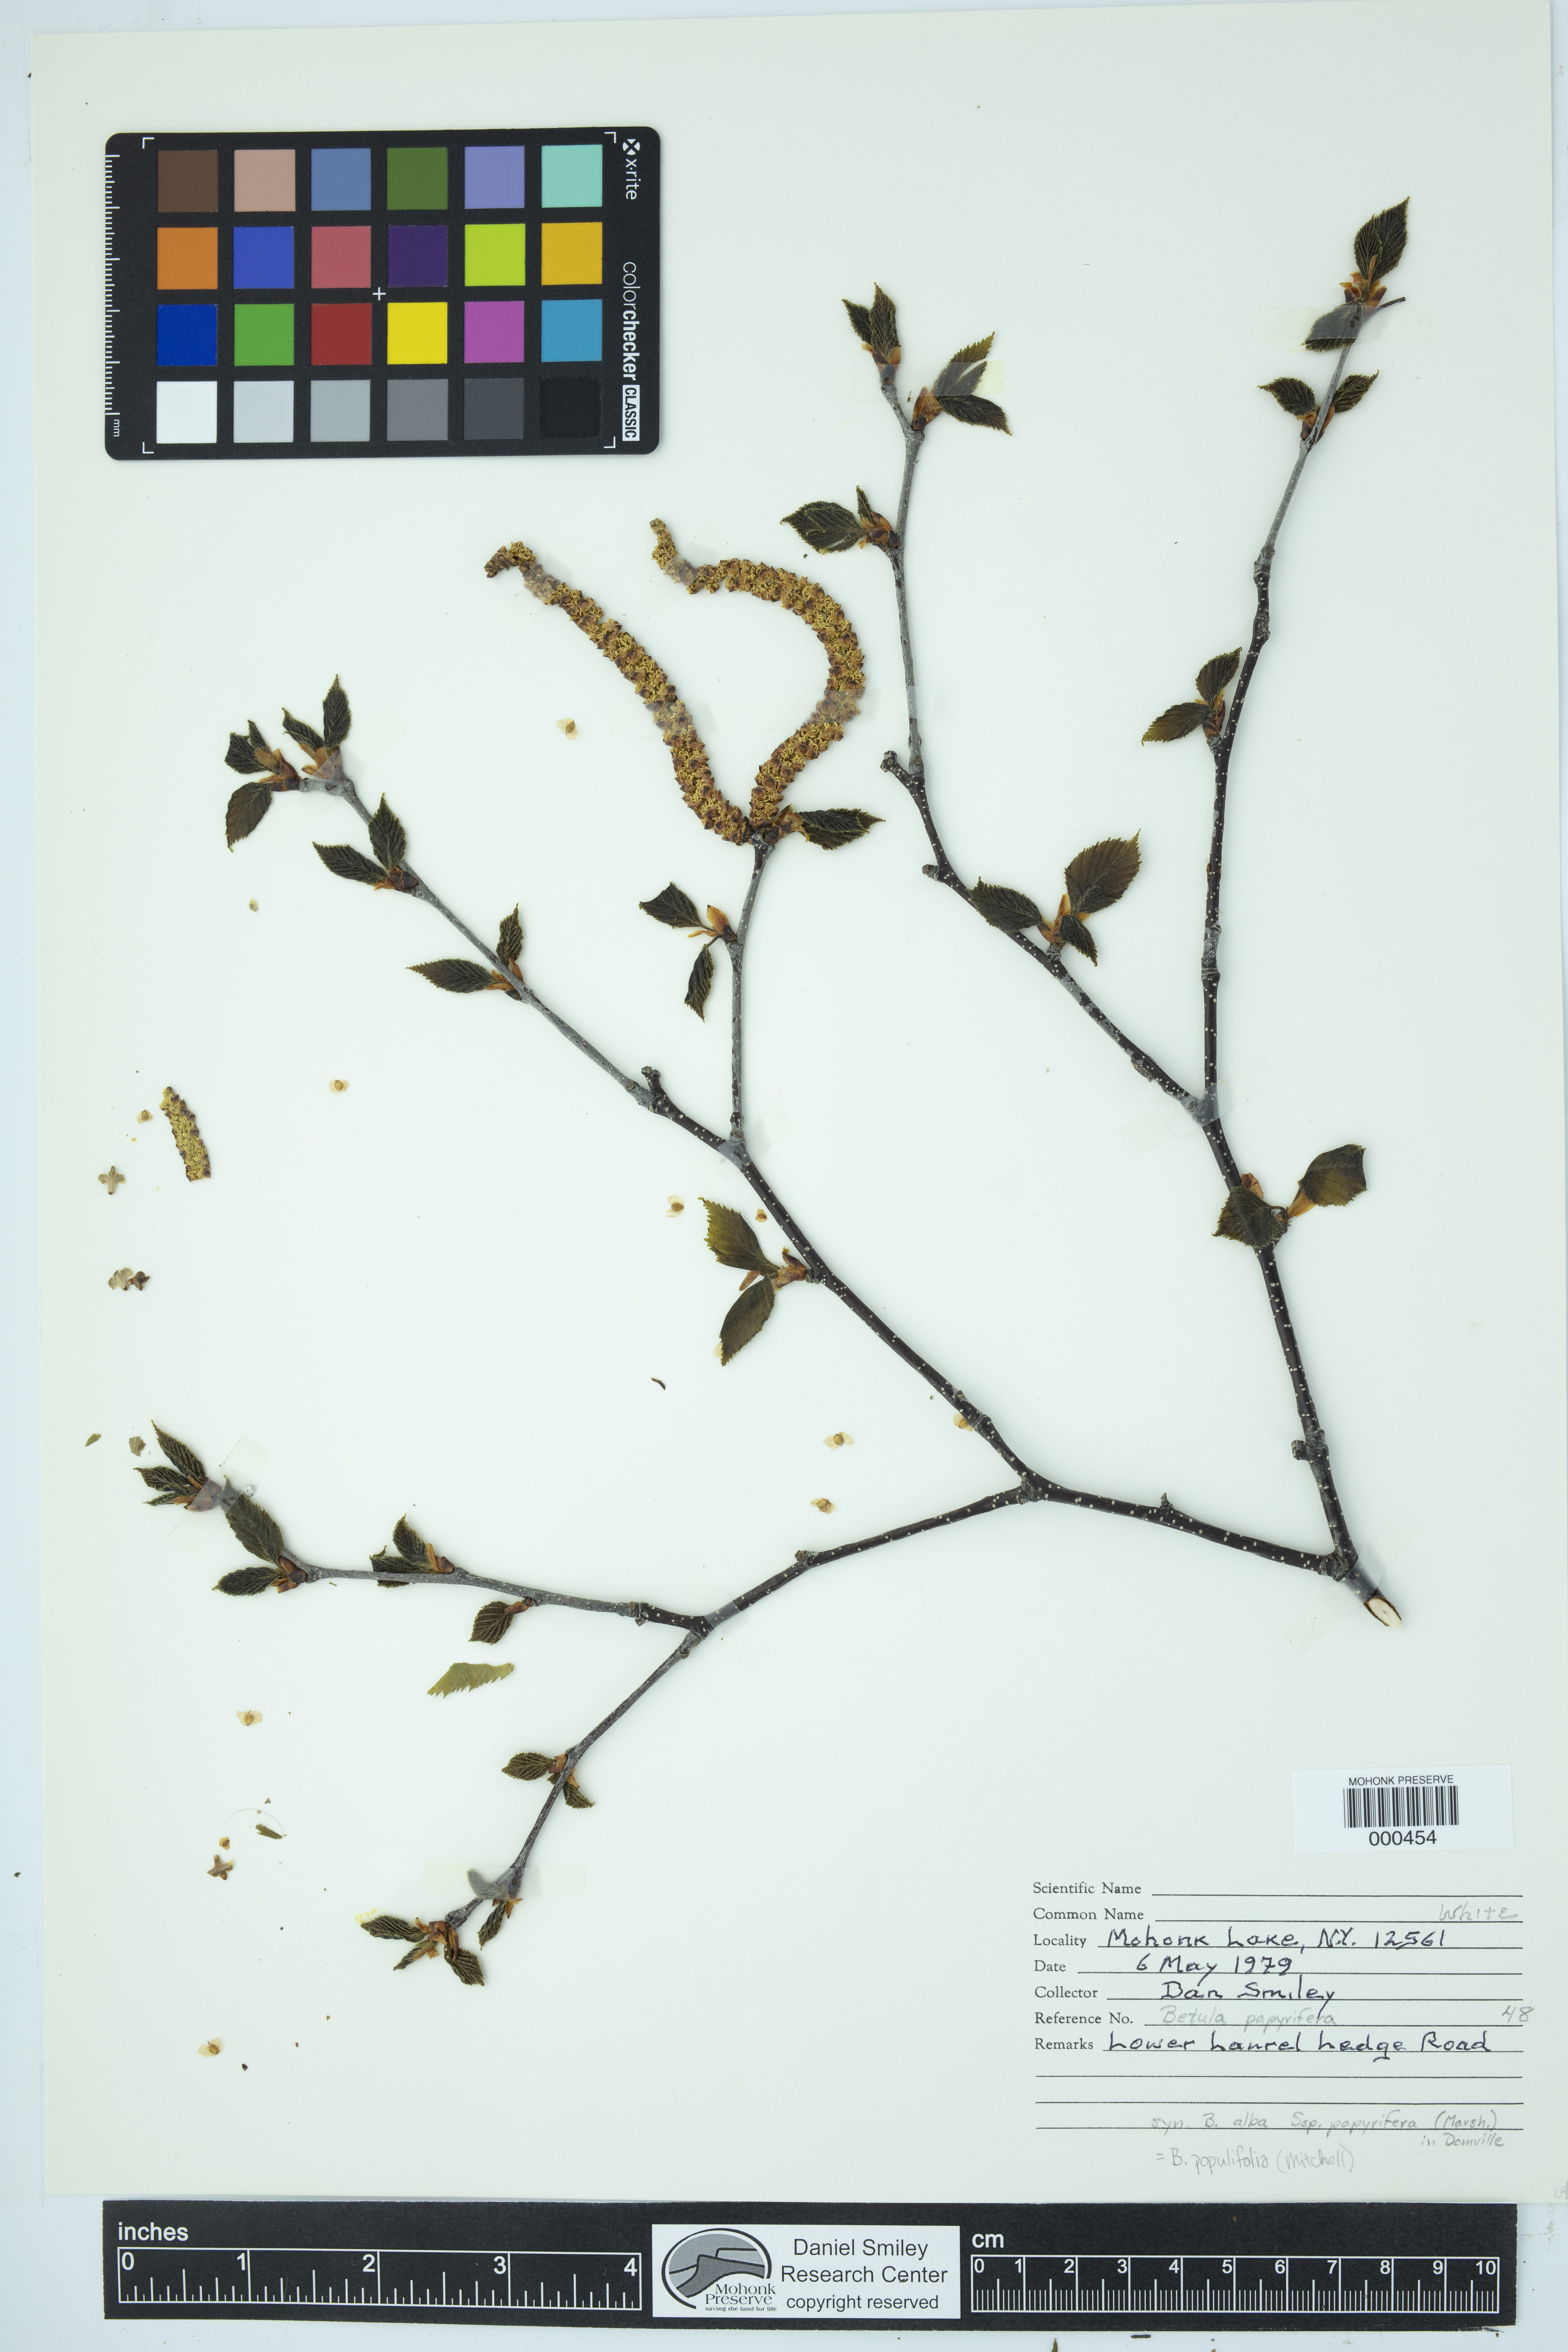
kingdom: Plantae
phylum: Tracheophyta
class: Magnoliopsida
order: Fagales
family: Betulaceae
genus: Betula
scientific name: Betula populifolia
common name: Fire birch
